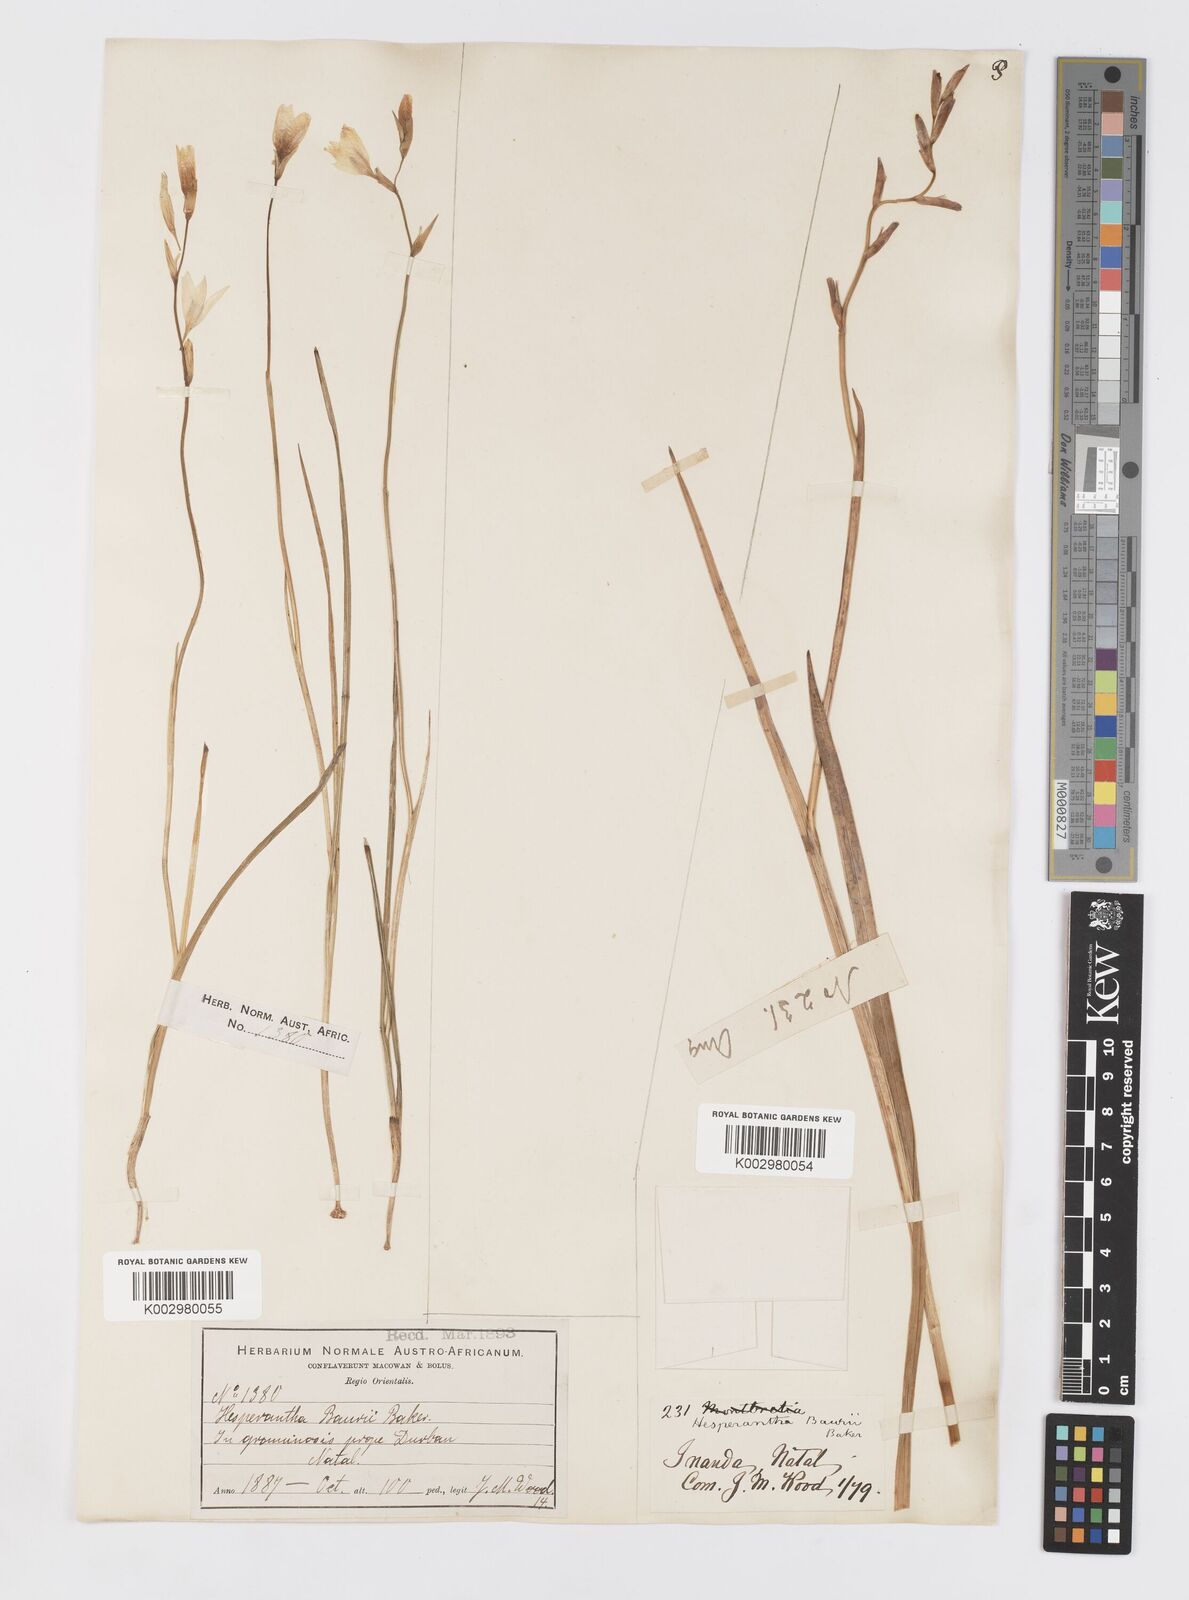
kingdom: Plantae
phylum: Tracheophyta
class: Liliopsida
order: Asparagales
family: Iridaceae
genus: Hesperantha
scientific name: Hesperantha baurii
